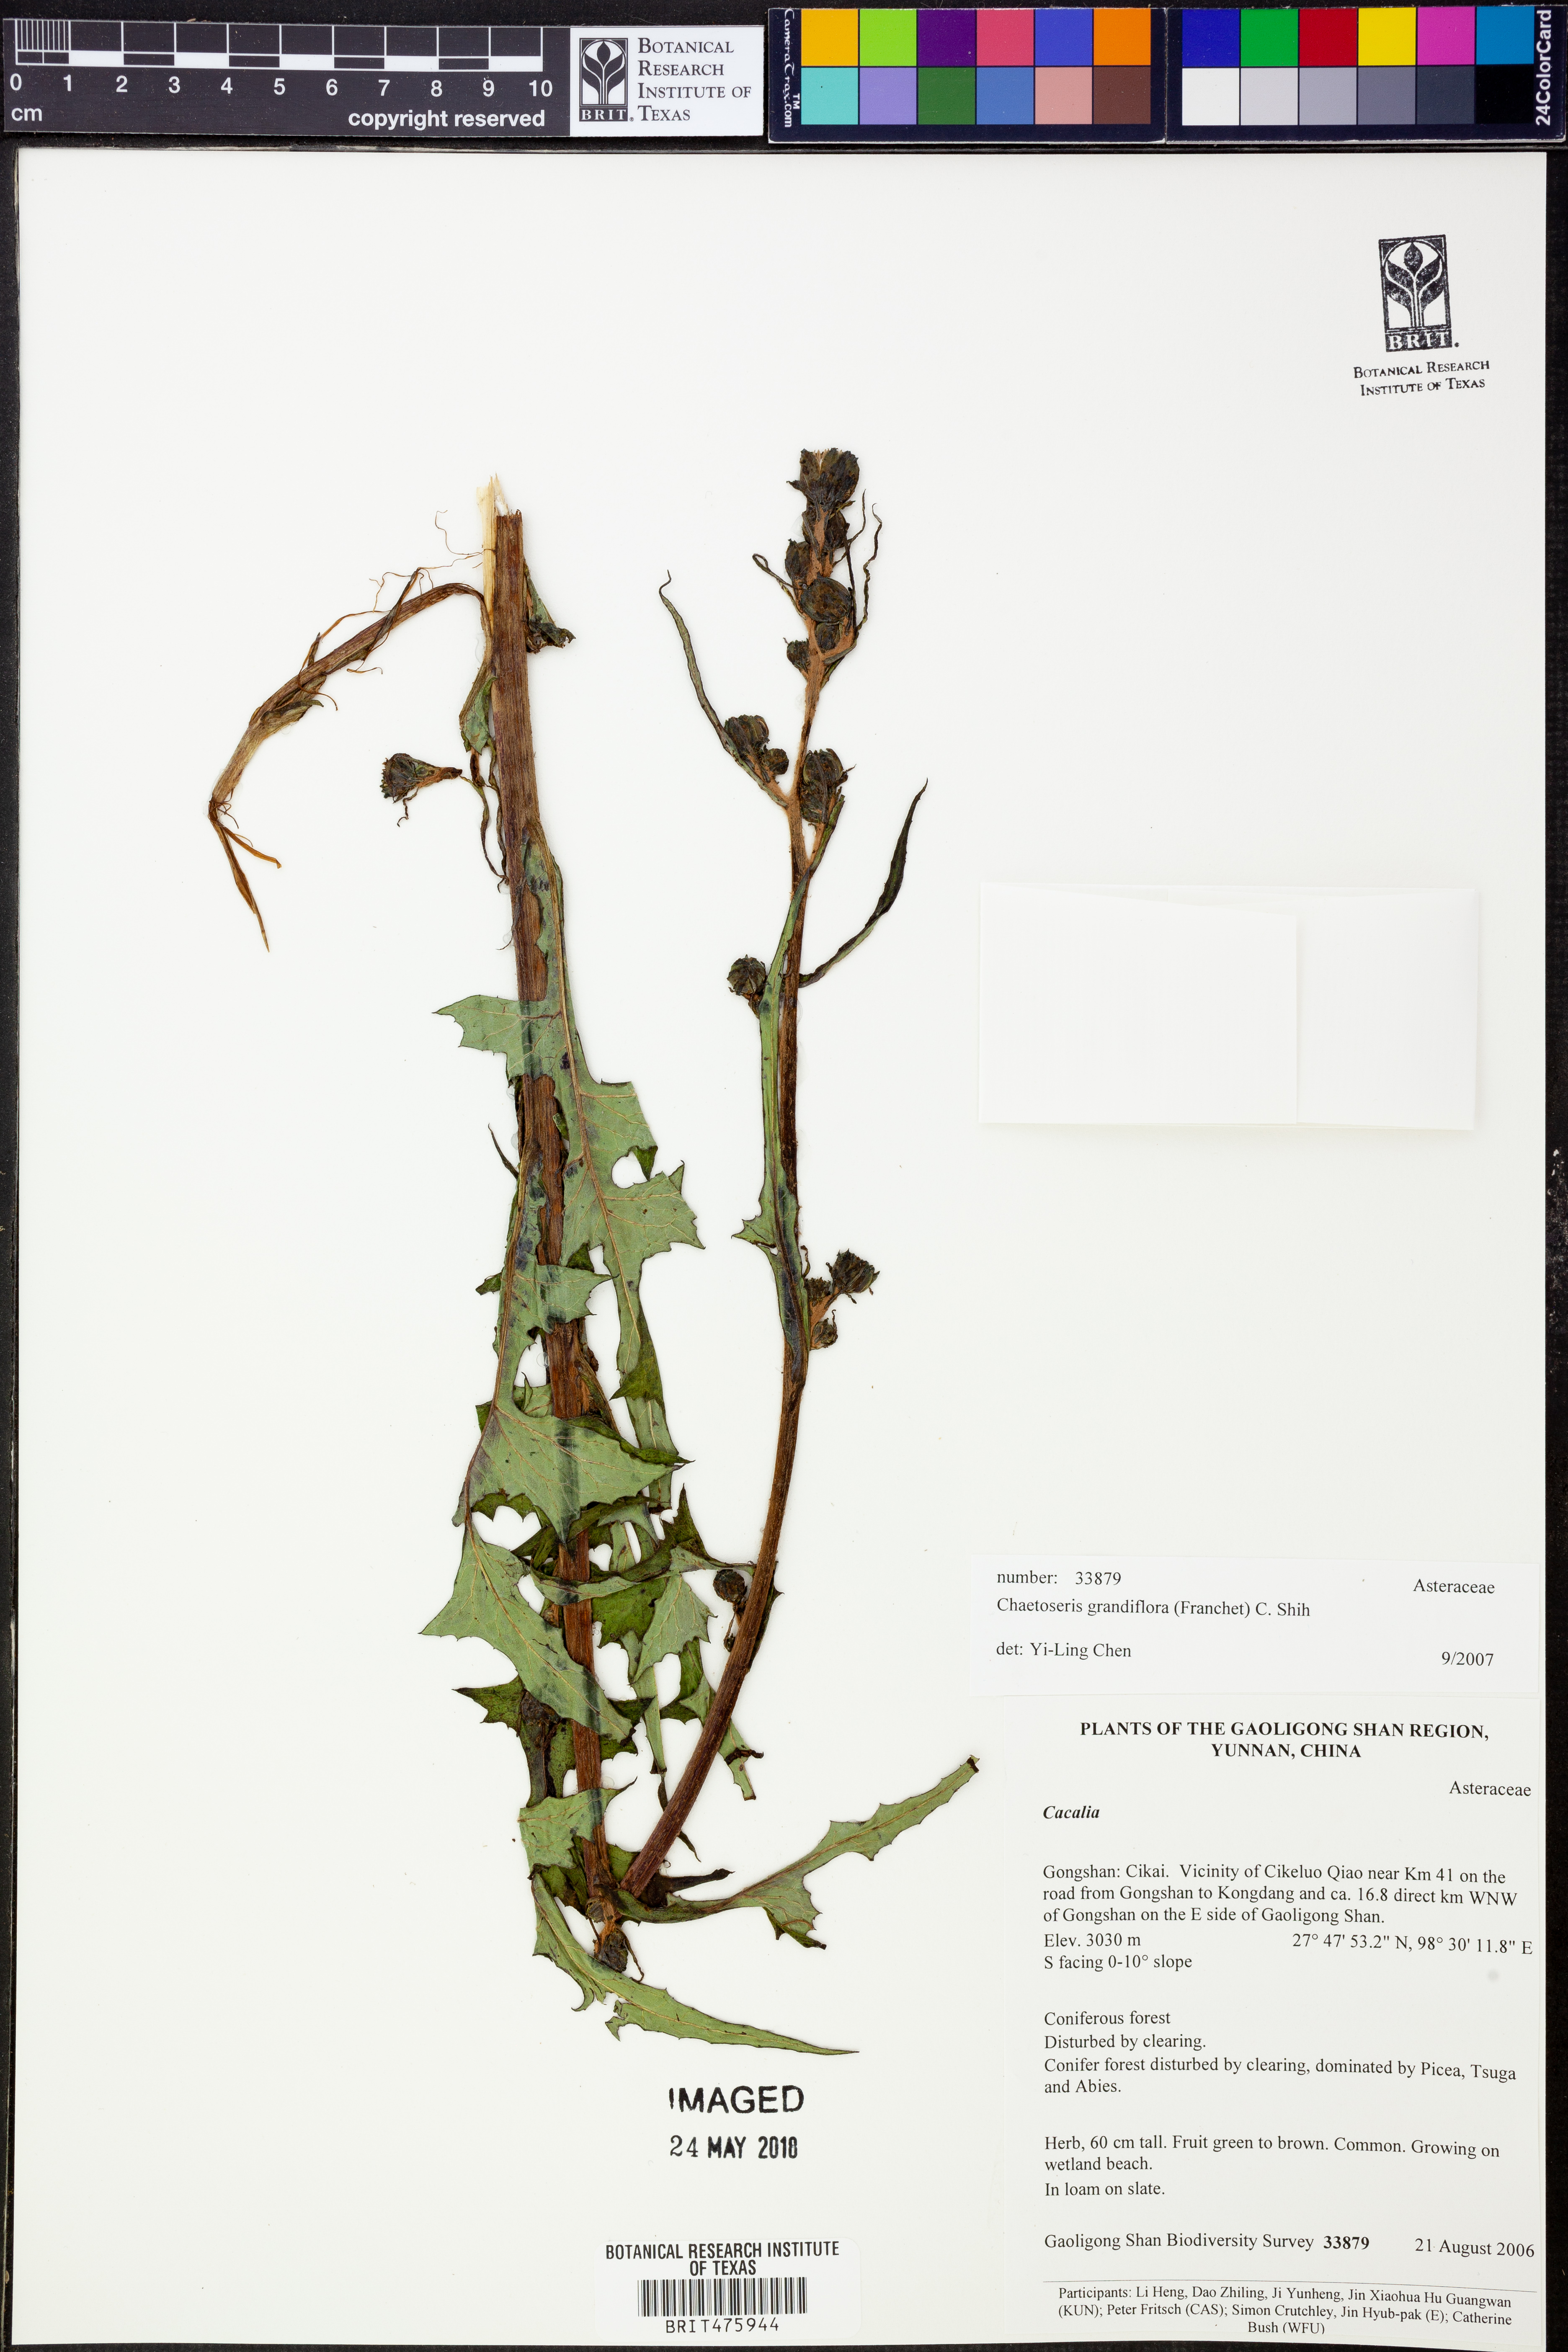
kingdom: Plantae
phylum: Tracheophyta
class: Magnoliopsida
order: Asterales
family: Asteraceae
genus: Melanoseris
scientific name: Melanoseris atropurpurea
